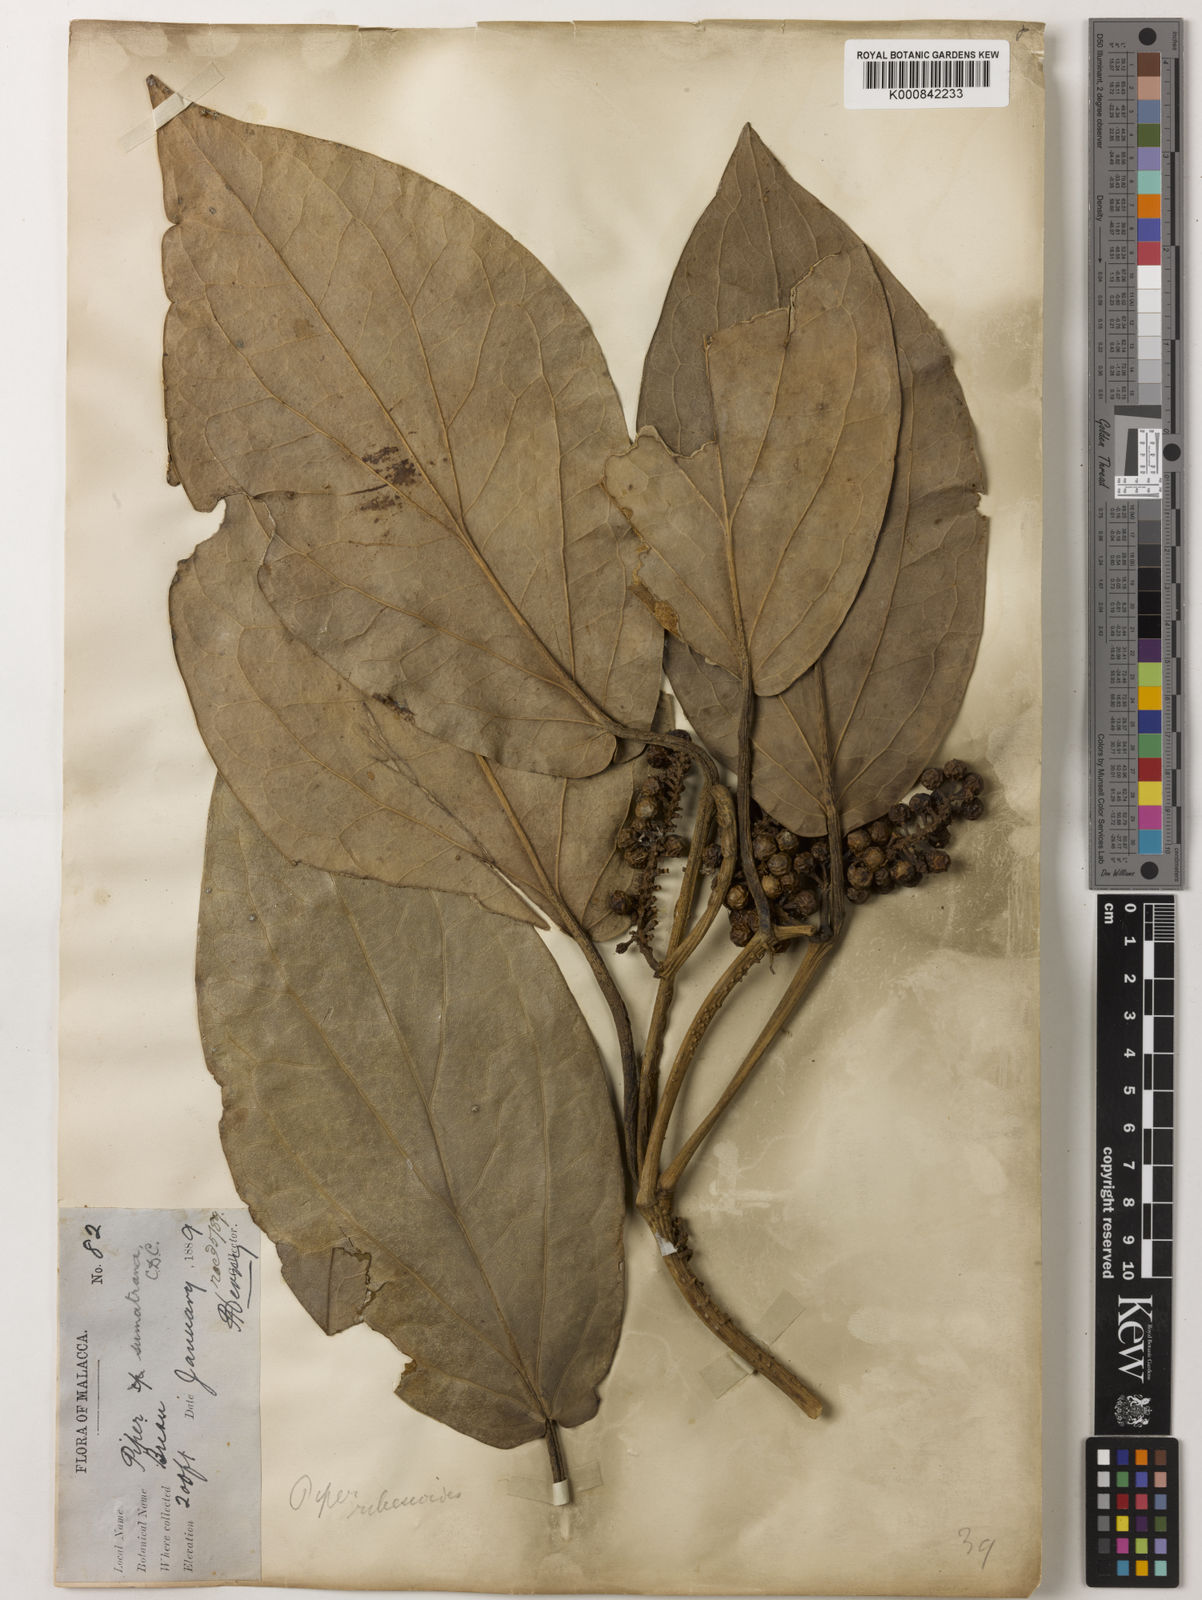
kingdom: Plantae
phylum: Tracheophyta
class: Magnoliopsida
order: Piperales
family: Piperaceae
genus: Piper
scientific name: Piper ribesioides
